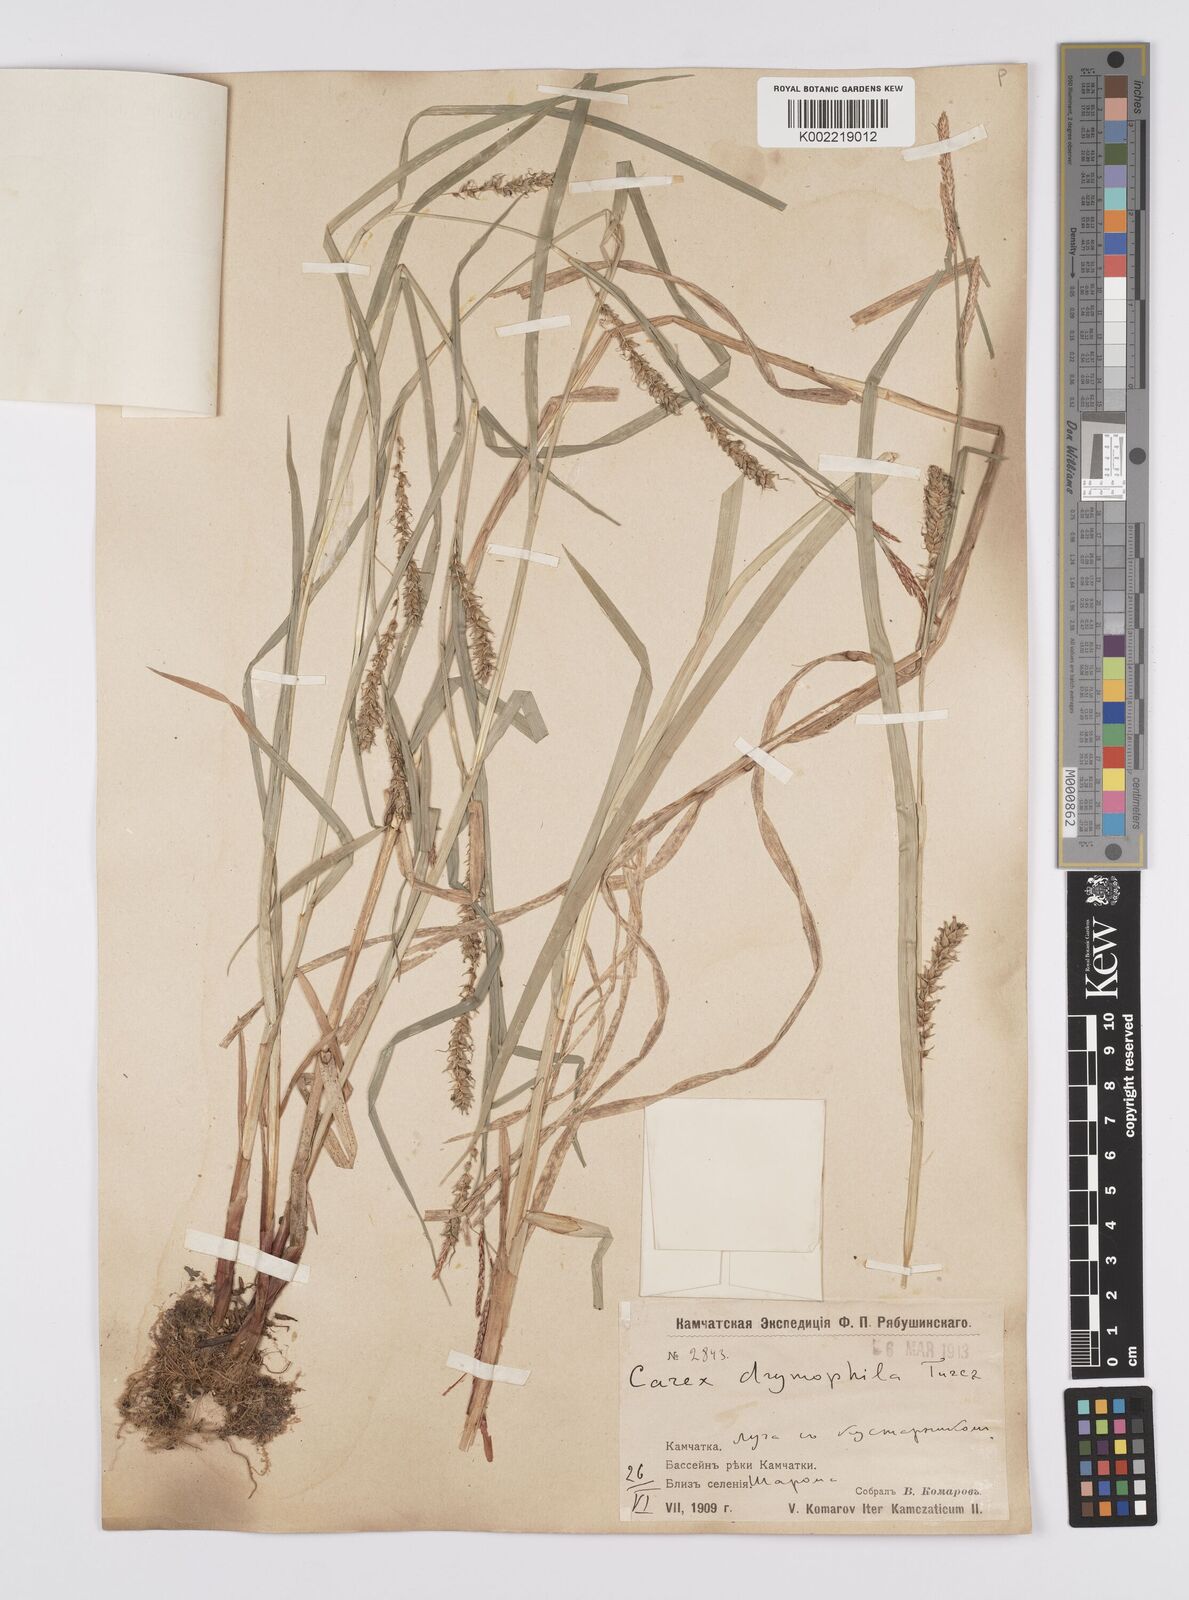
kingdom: Plantae
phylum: Tracheophyta
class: Liliopsida
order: Poales
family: Cyperaceae
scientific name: Cyperaceae
